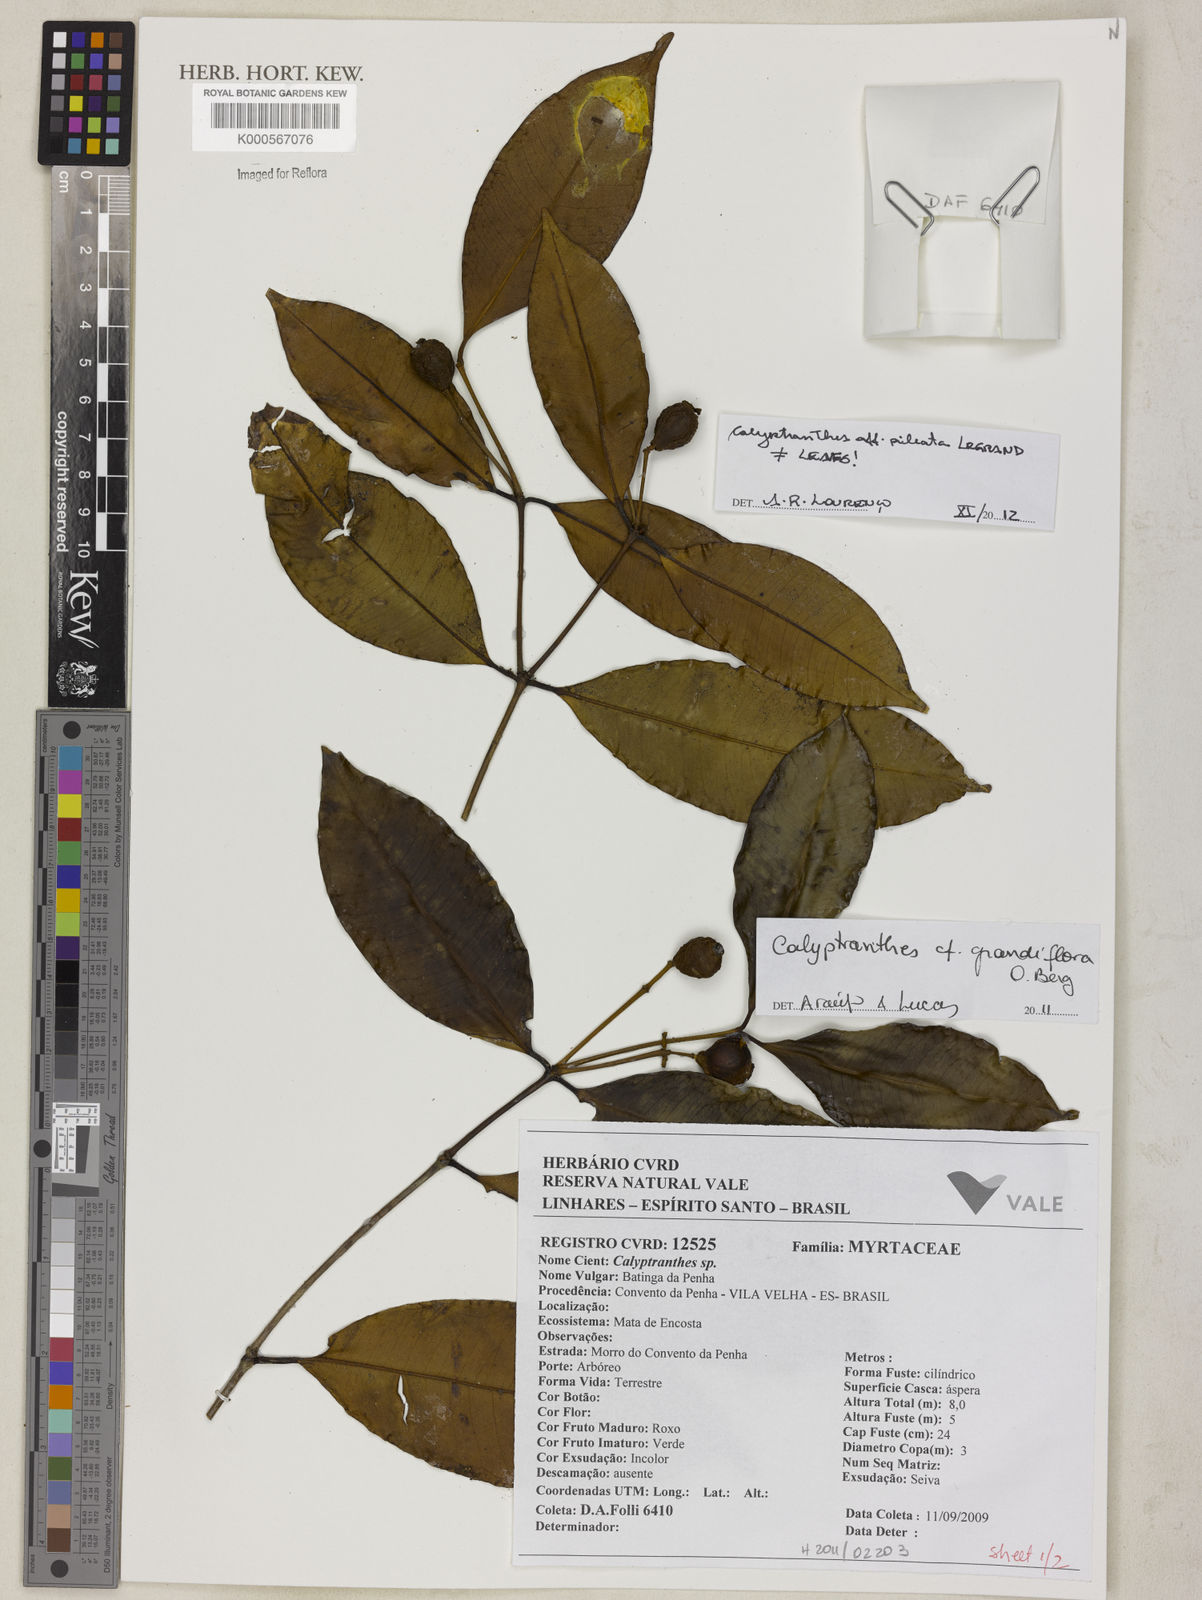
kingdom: Plantae
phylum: Tracheophyta
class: Magnoliopsida
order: Myrtales
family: Myrtaceae
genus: Calyptranthes
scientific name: Calyptranthes grandiflora
